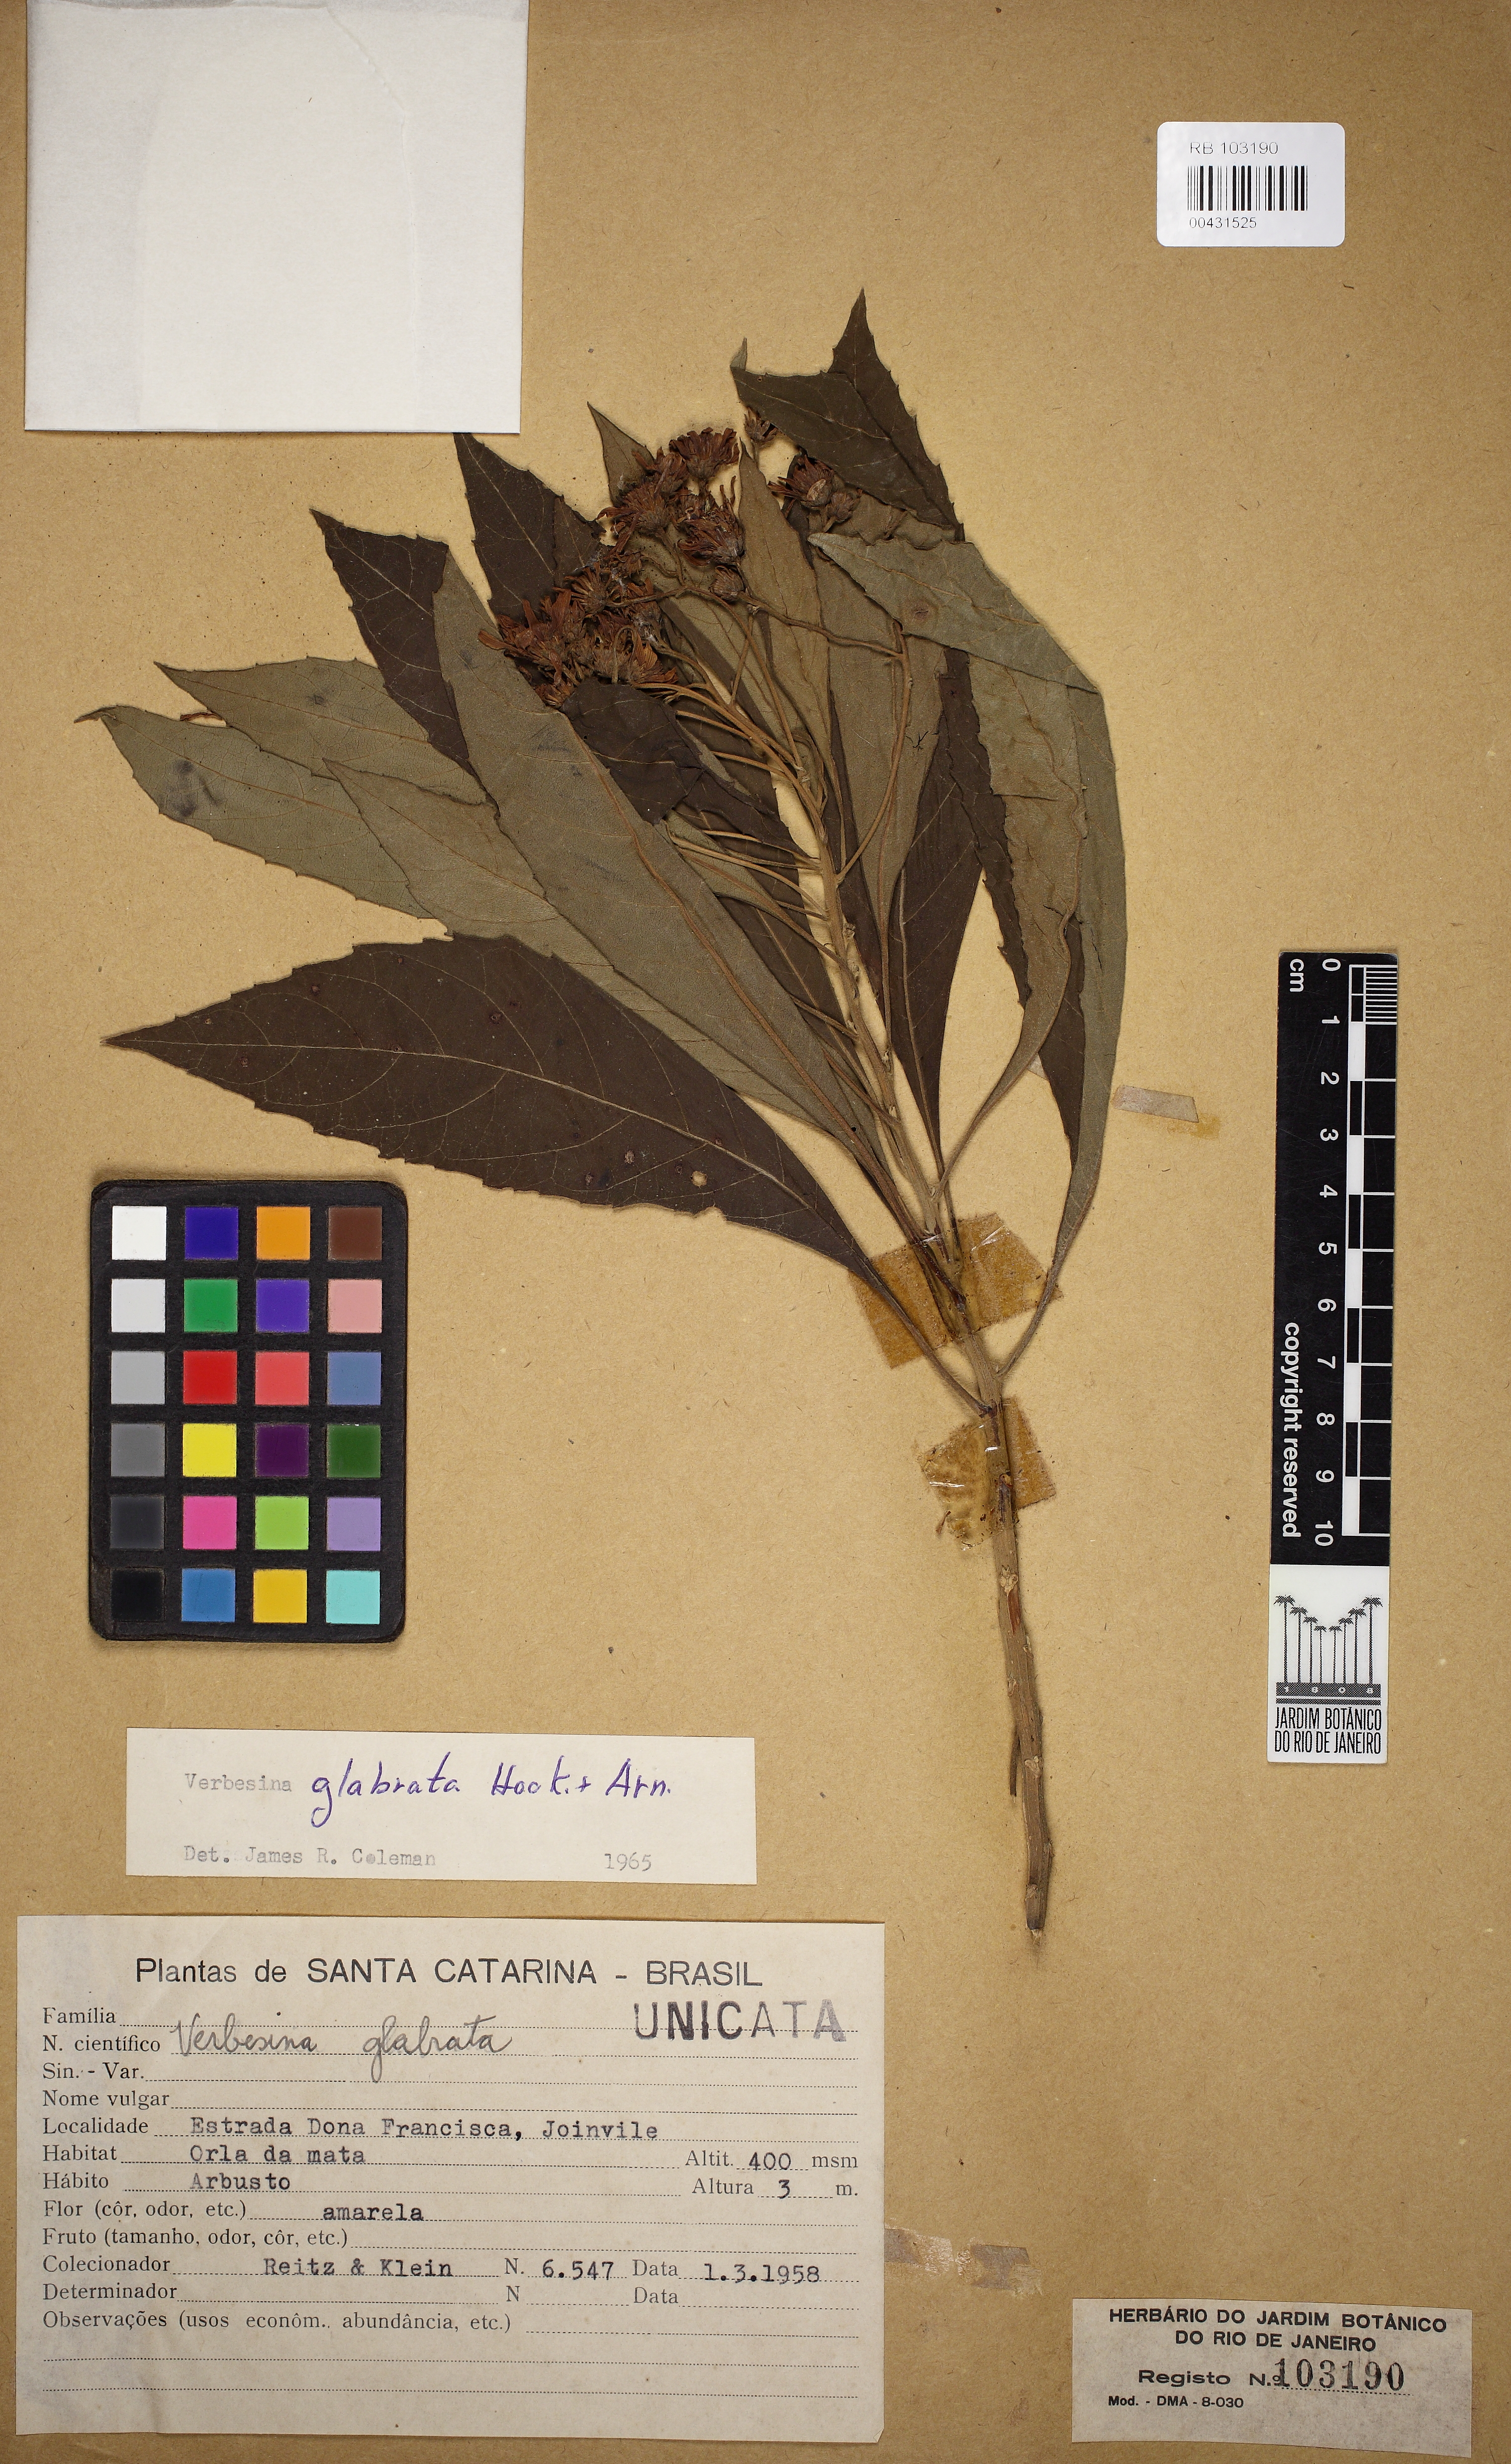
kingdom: Plantae
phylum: Tracheophyta
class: Magnoliopsida
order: Asterales
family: Asteraceae
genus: Verbesina
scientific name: Verbesina glabrata
